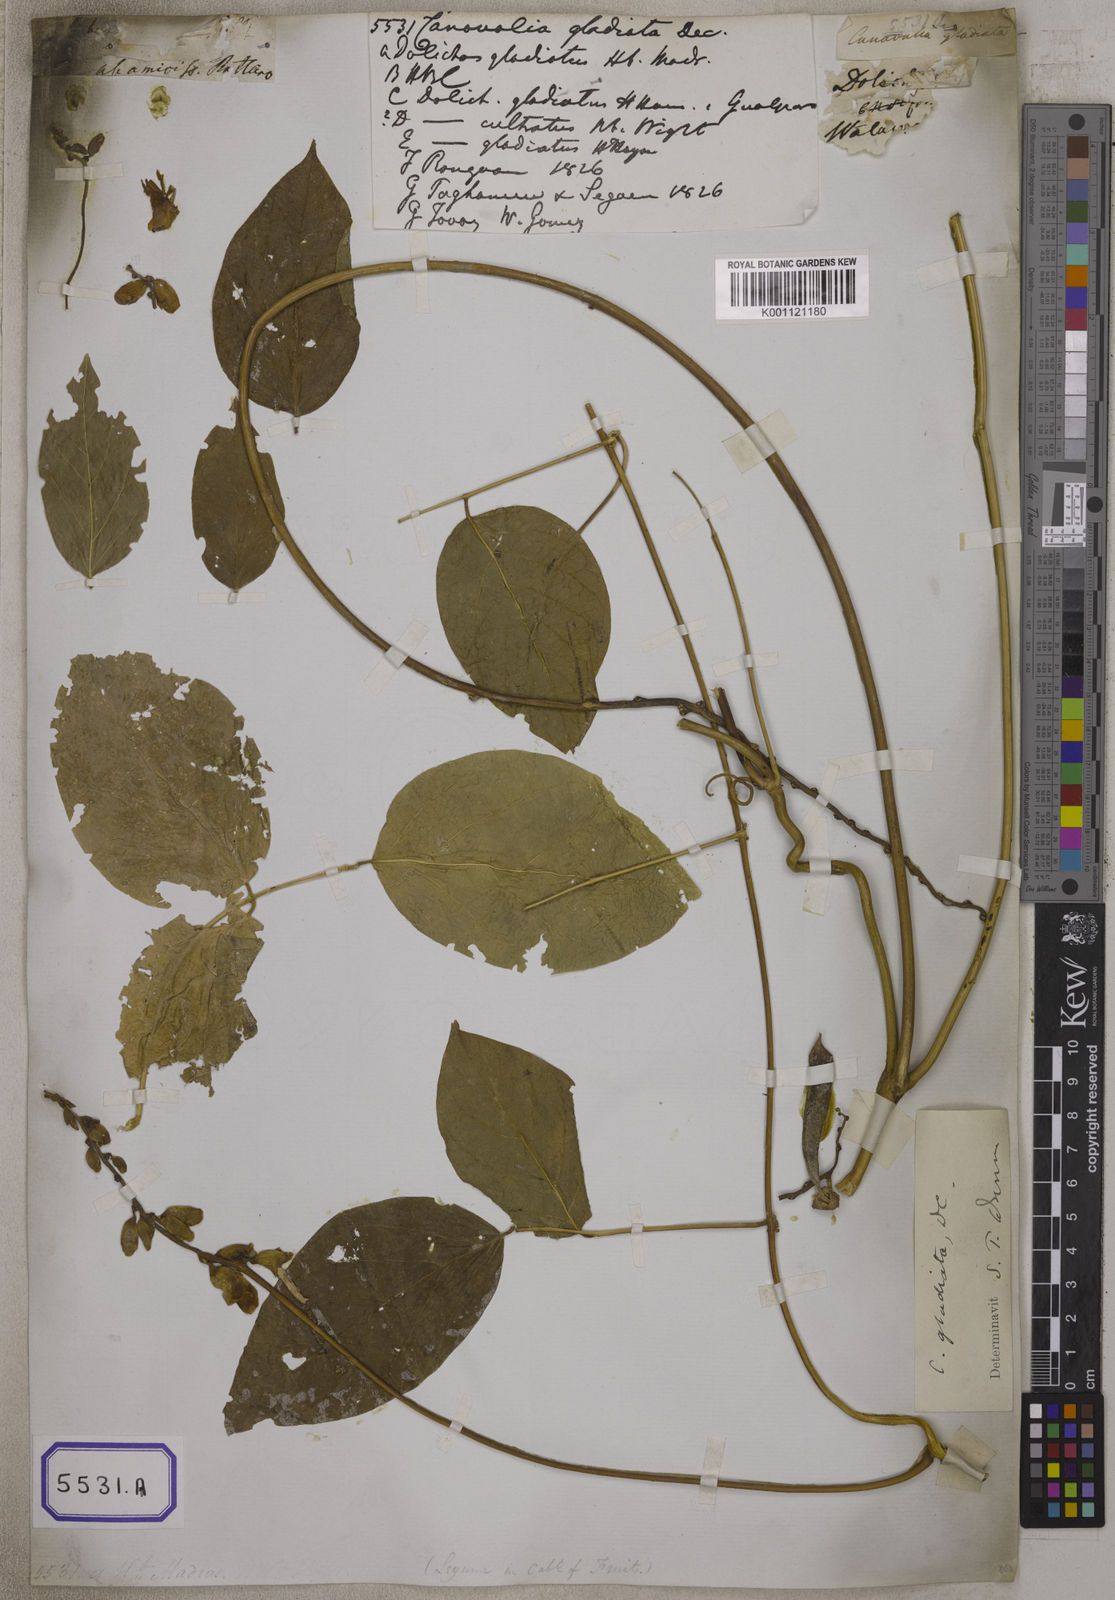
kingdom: Plantae
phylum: Tracheophyta
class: Magnoliopsida
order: Fabales
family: Fabaceae
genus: Canavalia
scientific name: Canavalia gladiata
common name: Scimitar-bean
